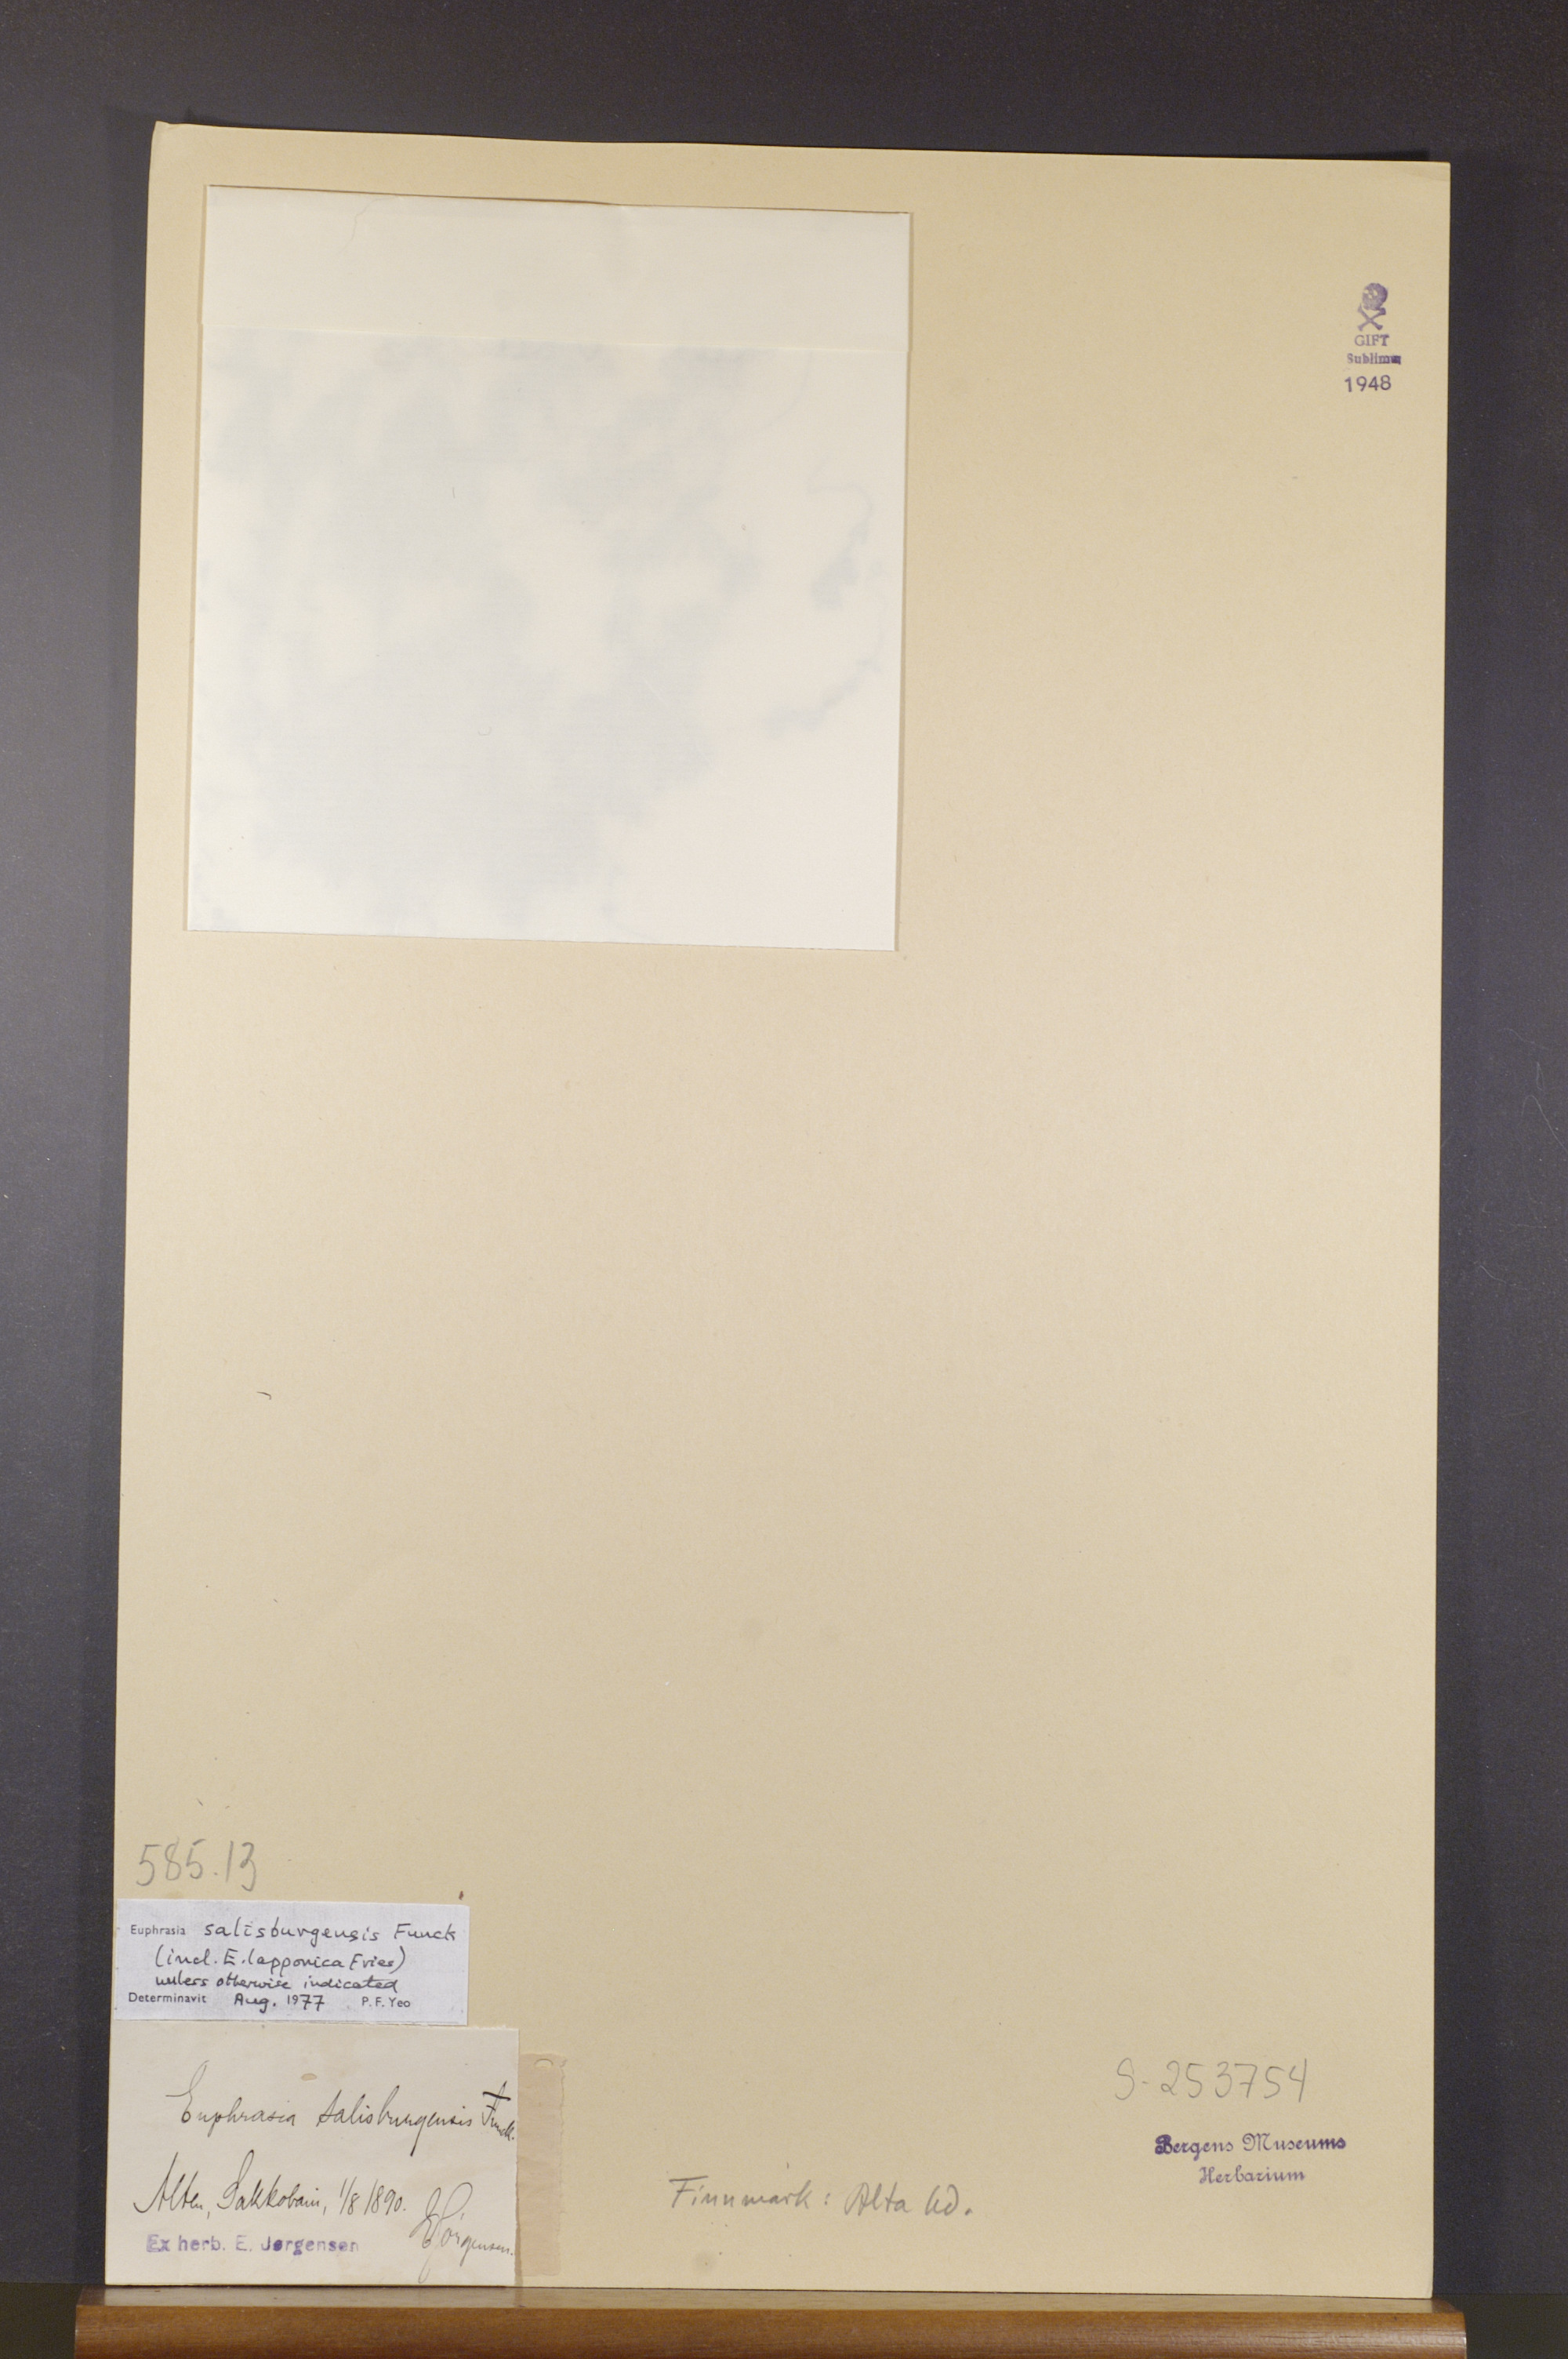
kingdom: Plantae
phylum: Tracheophyta
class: Magnoliopsida
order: Lamiales
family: Orobanchaceae
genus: Euphrasia
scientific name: Euphrasia salisburgensis
